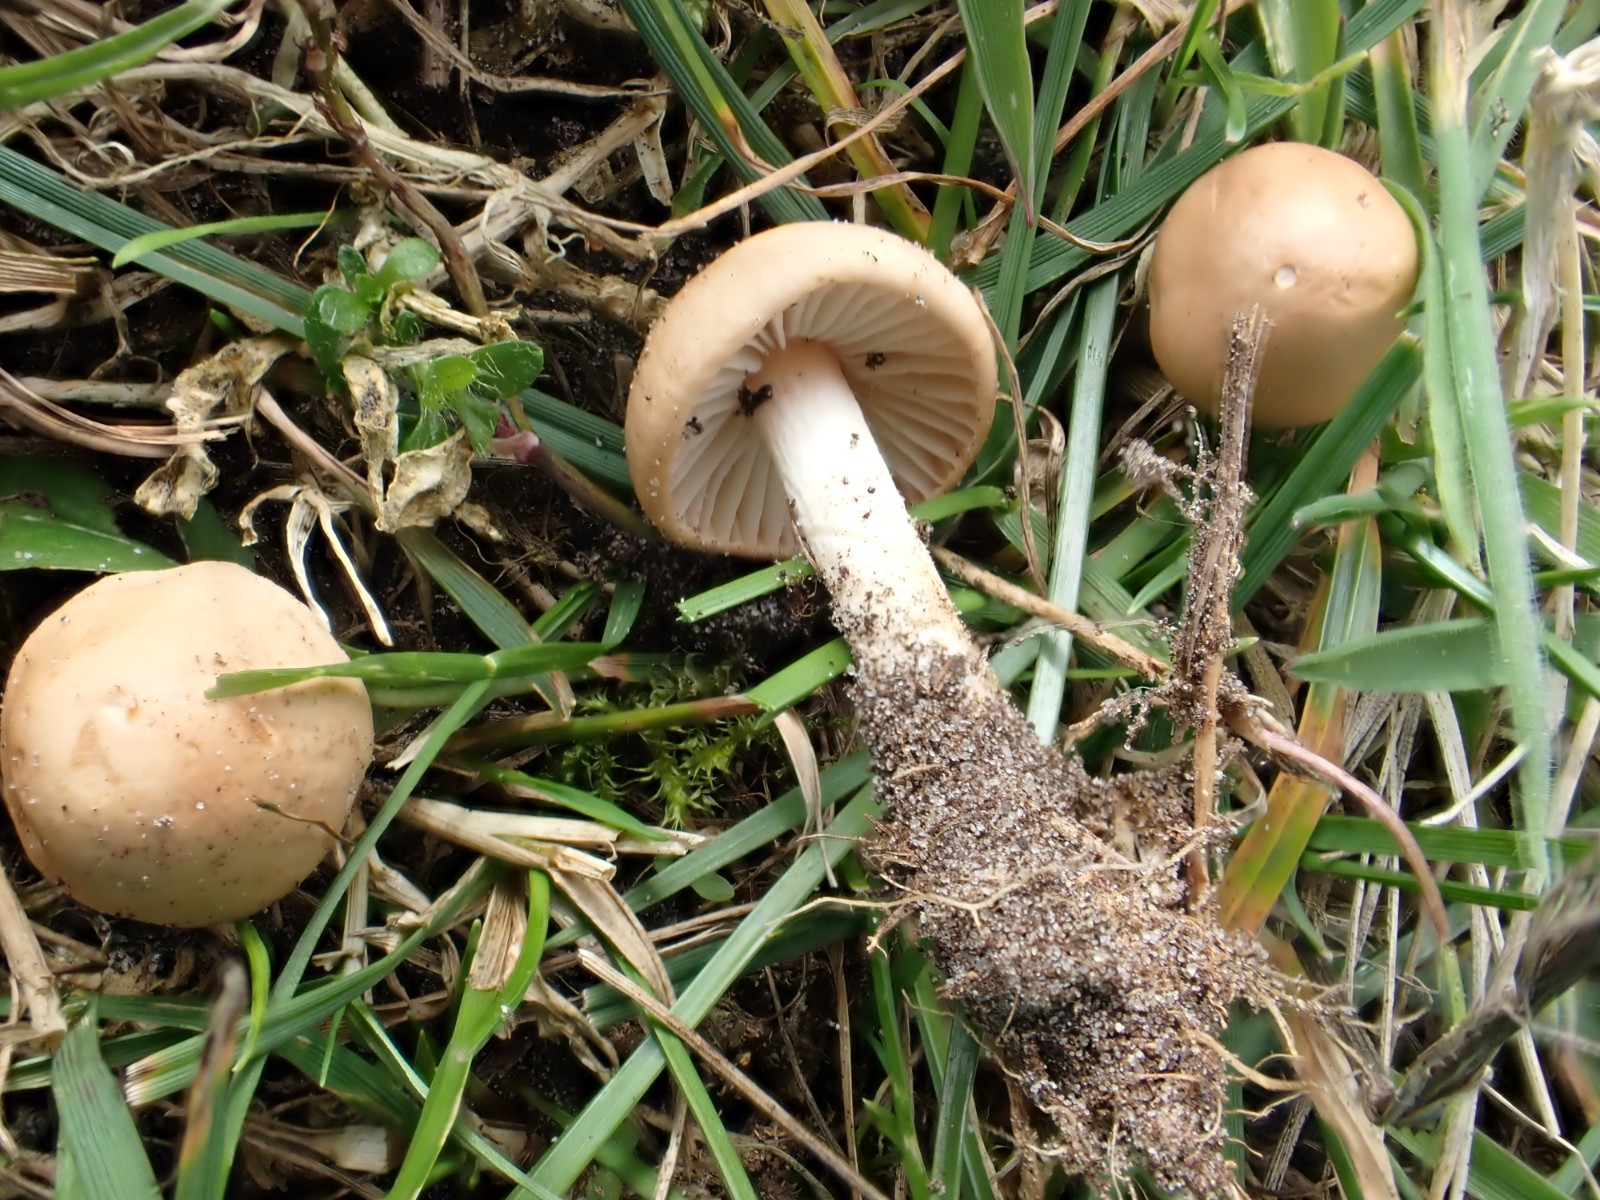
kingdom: Fungi
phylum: Basidiomycota
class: Agaricomycetes
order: Agaricales
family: Marasmiaceae
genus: Marasmius
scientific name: Marasmius oreades
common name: elledans-bruskhat
